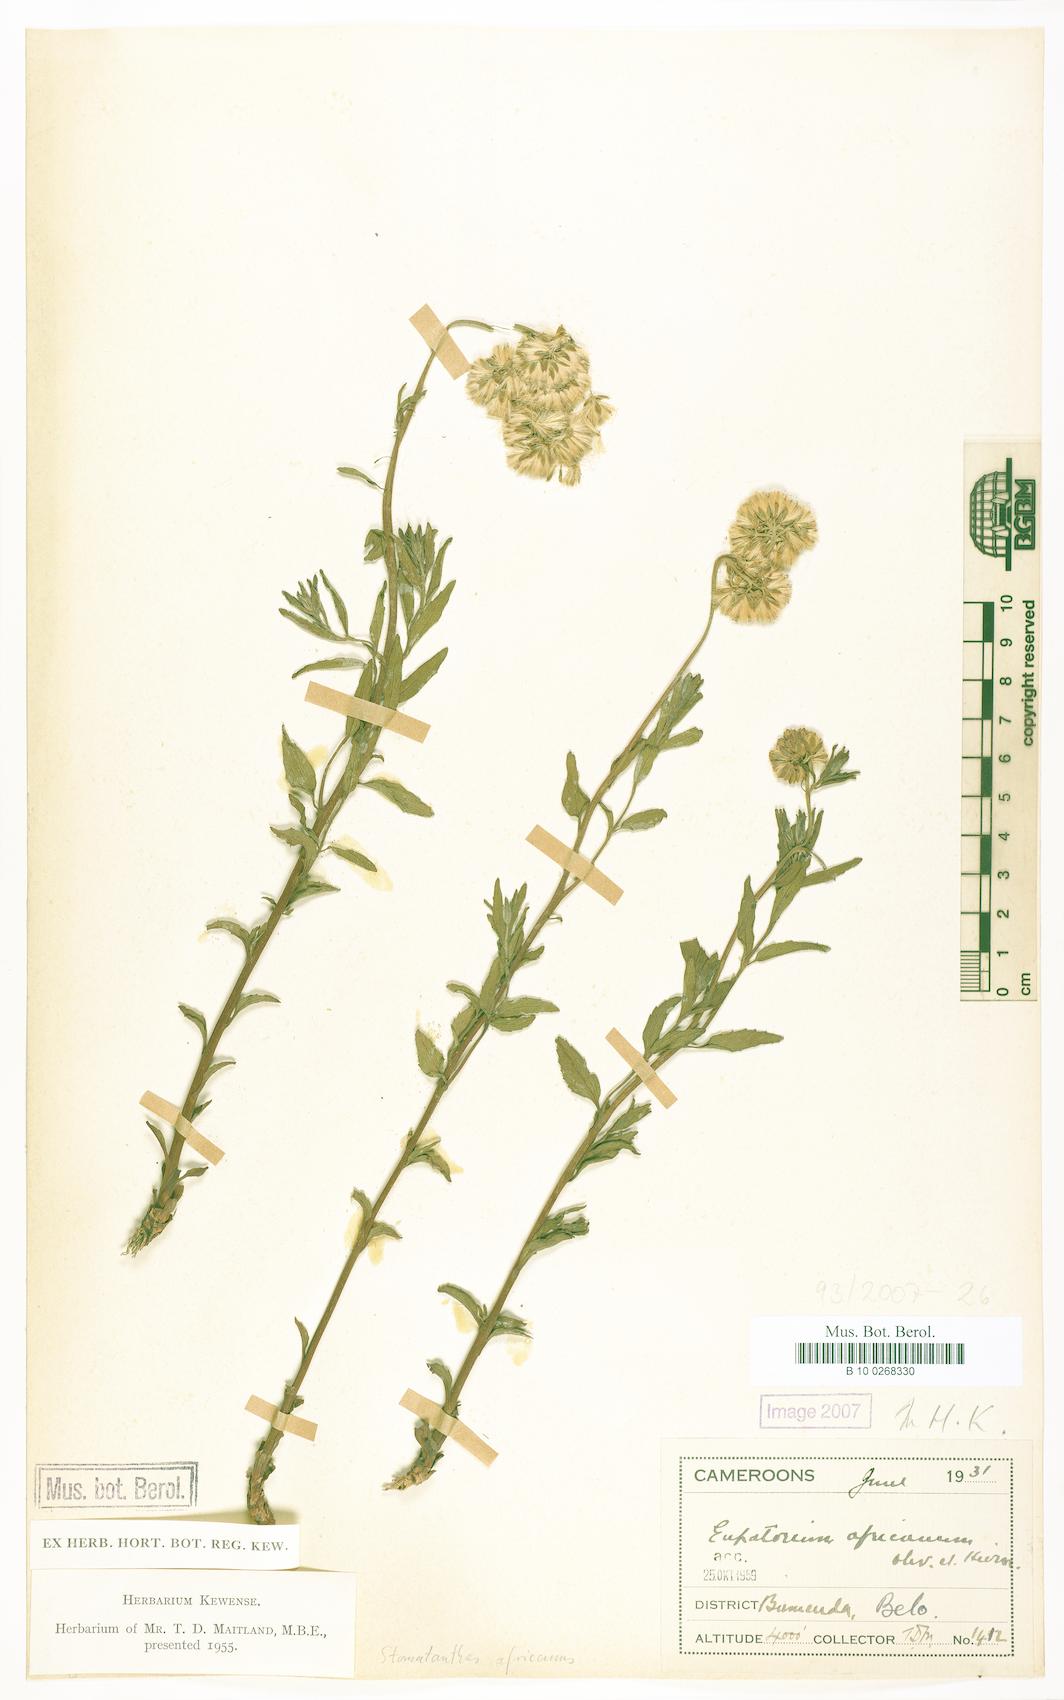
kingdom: Plantae
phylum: Tracheophyta
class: Magnoliopsida
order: Asterales
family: Asteraceae
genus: Stomatanthes
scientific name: Stomatanthes africanus
